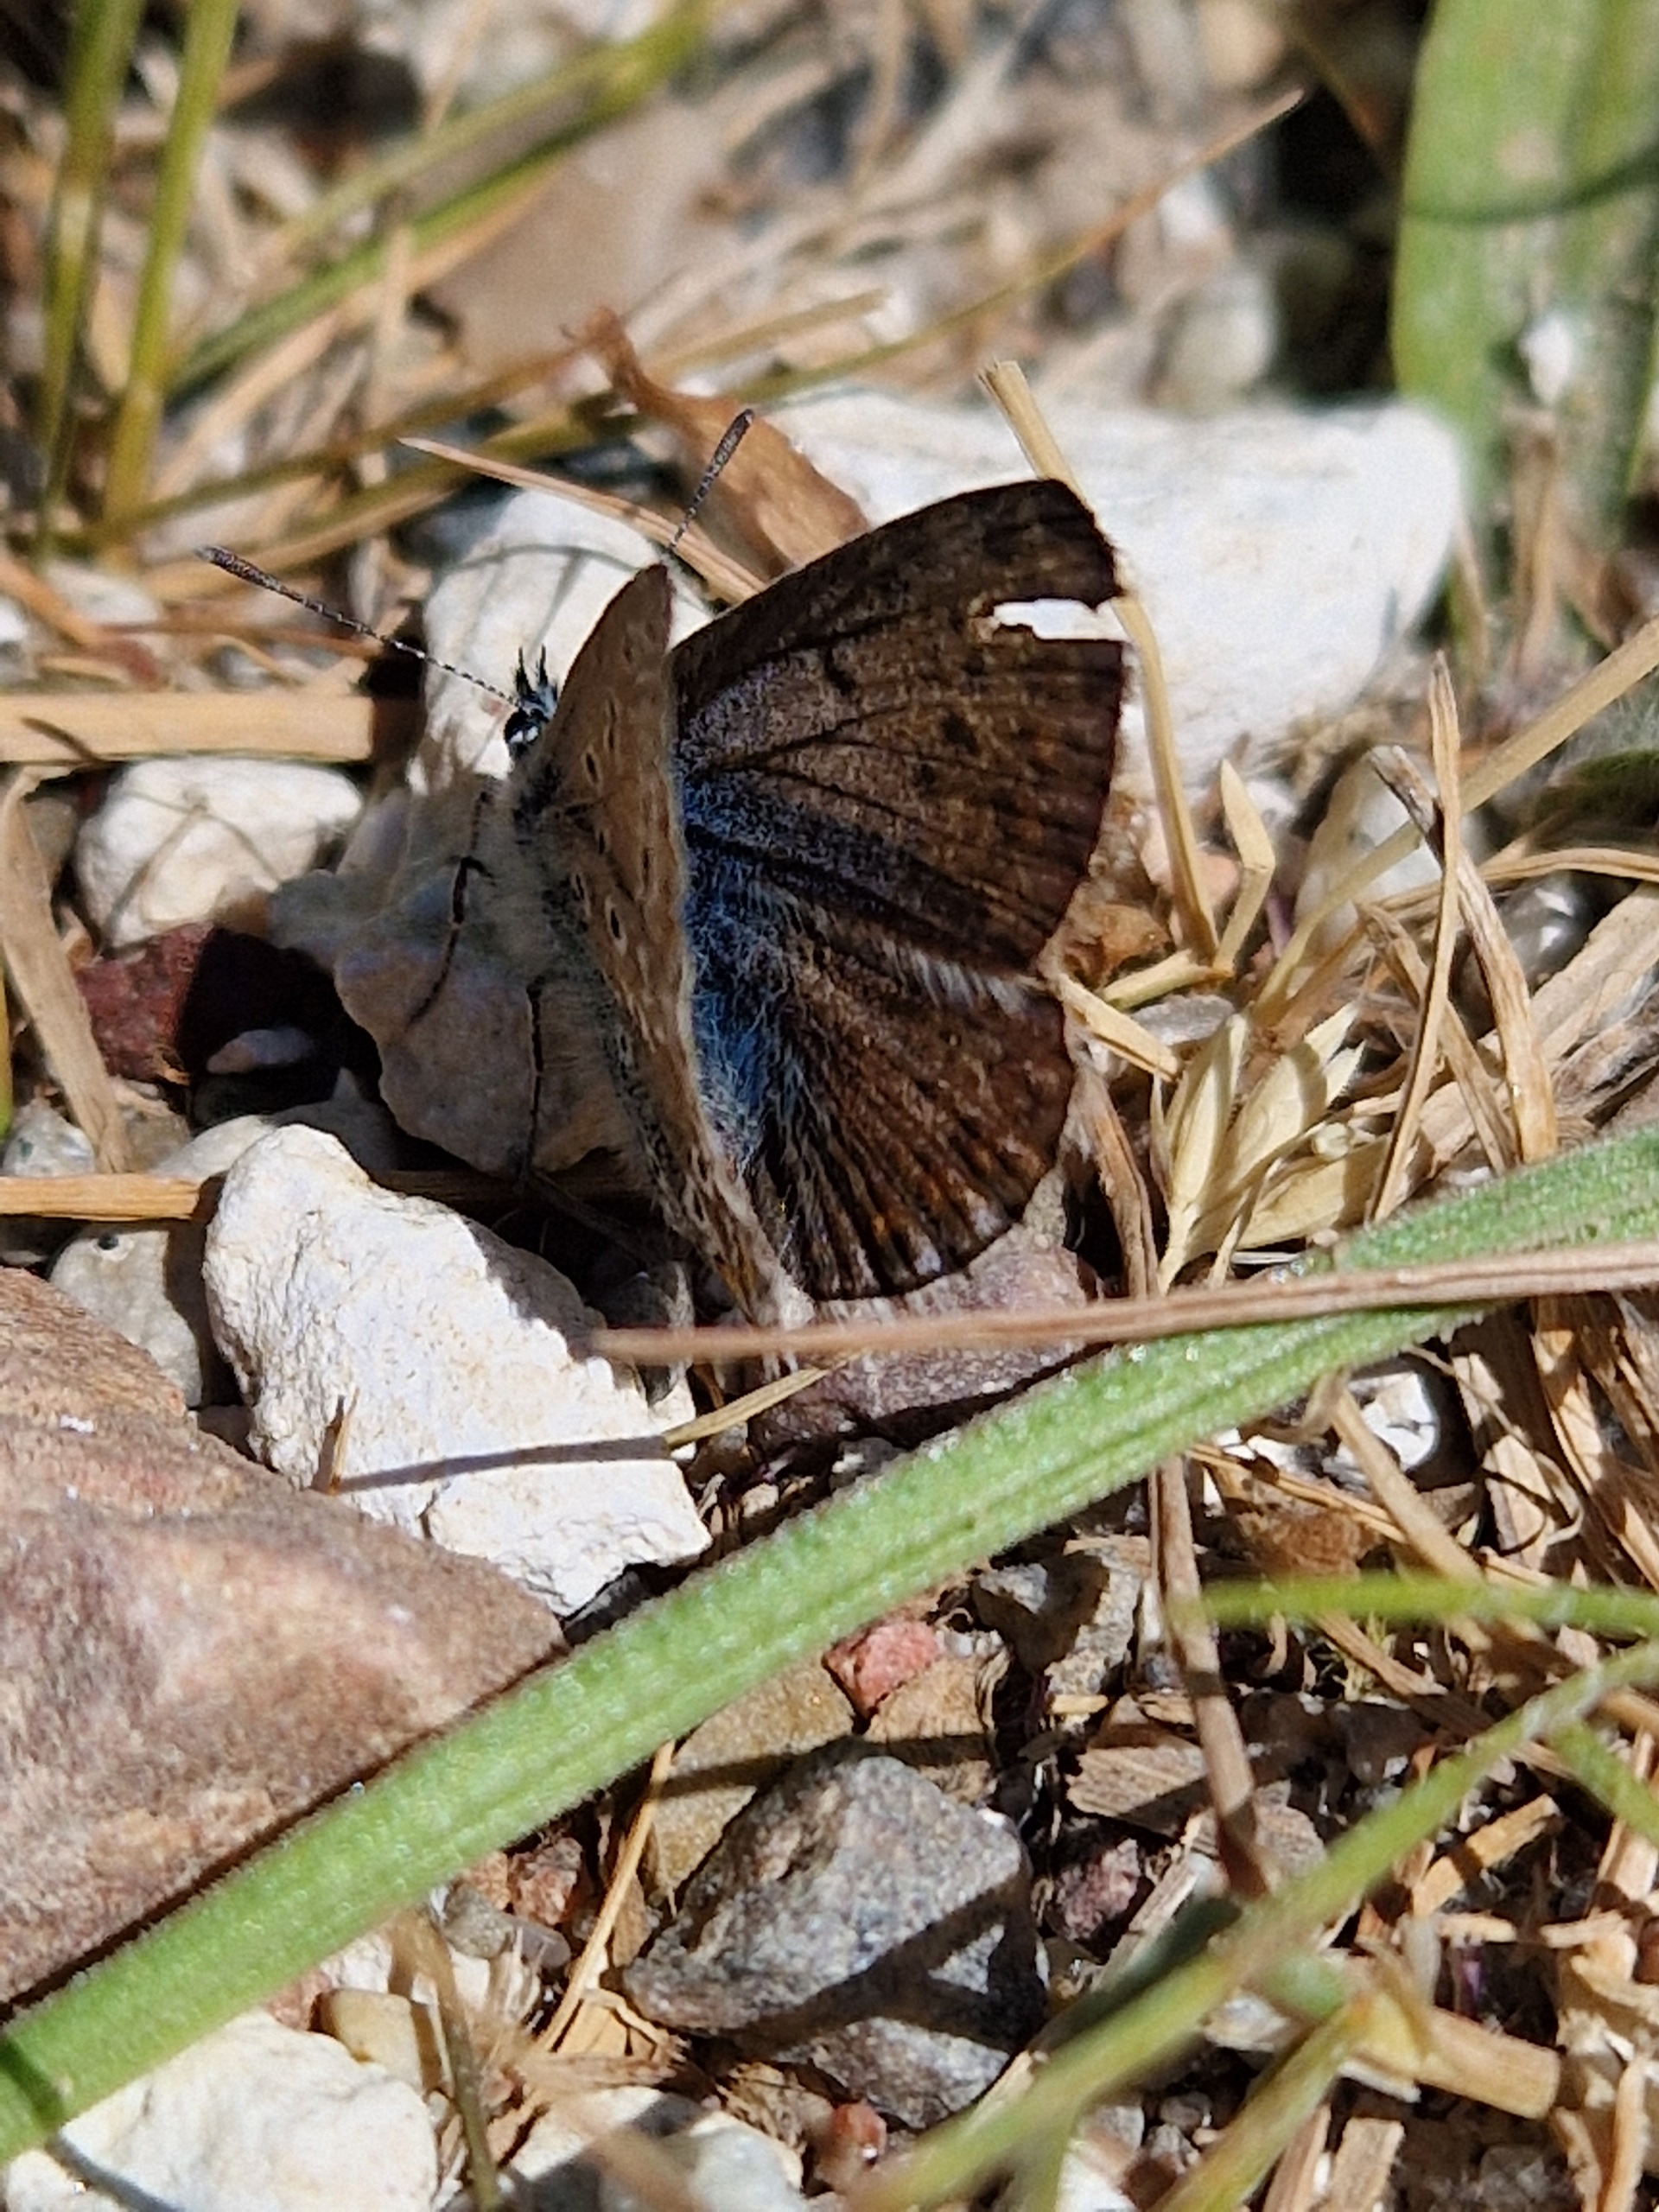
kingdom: Animalia
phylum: Arthropoda
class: Insecta
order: Lepidoptera
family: Lycaenidae
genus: Polyommatus
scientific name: Polyommatus icarus
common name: Almindelig blåfugl
